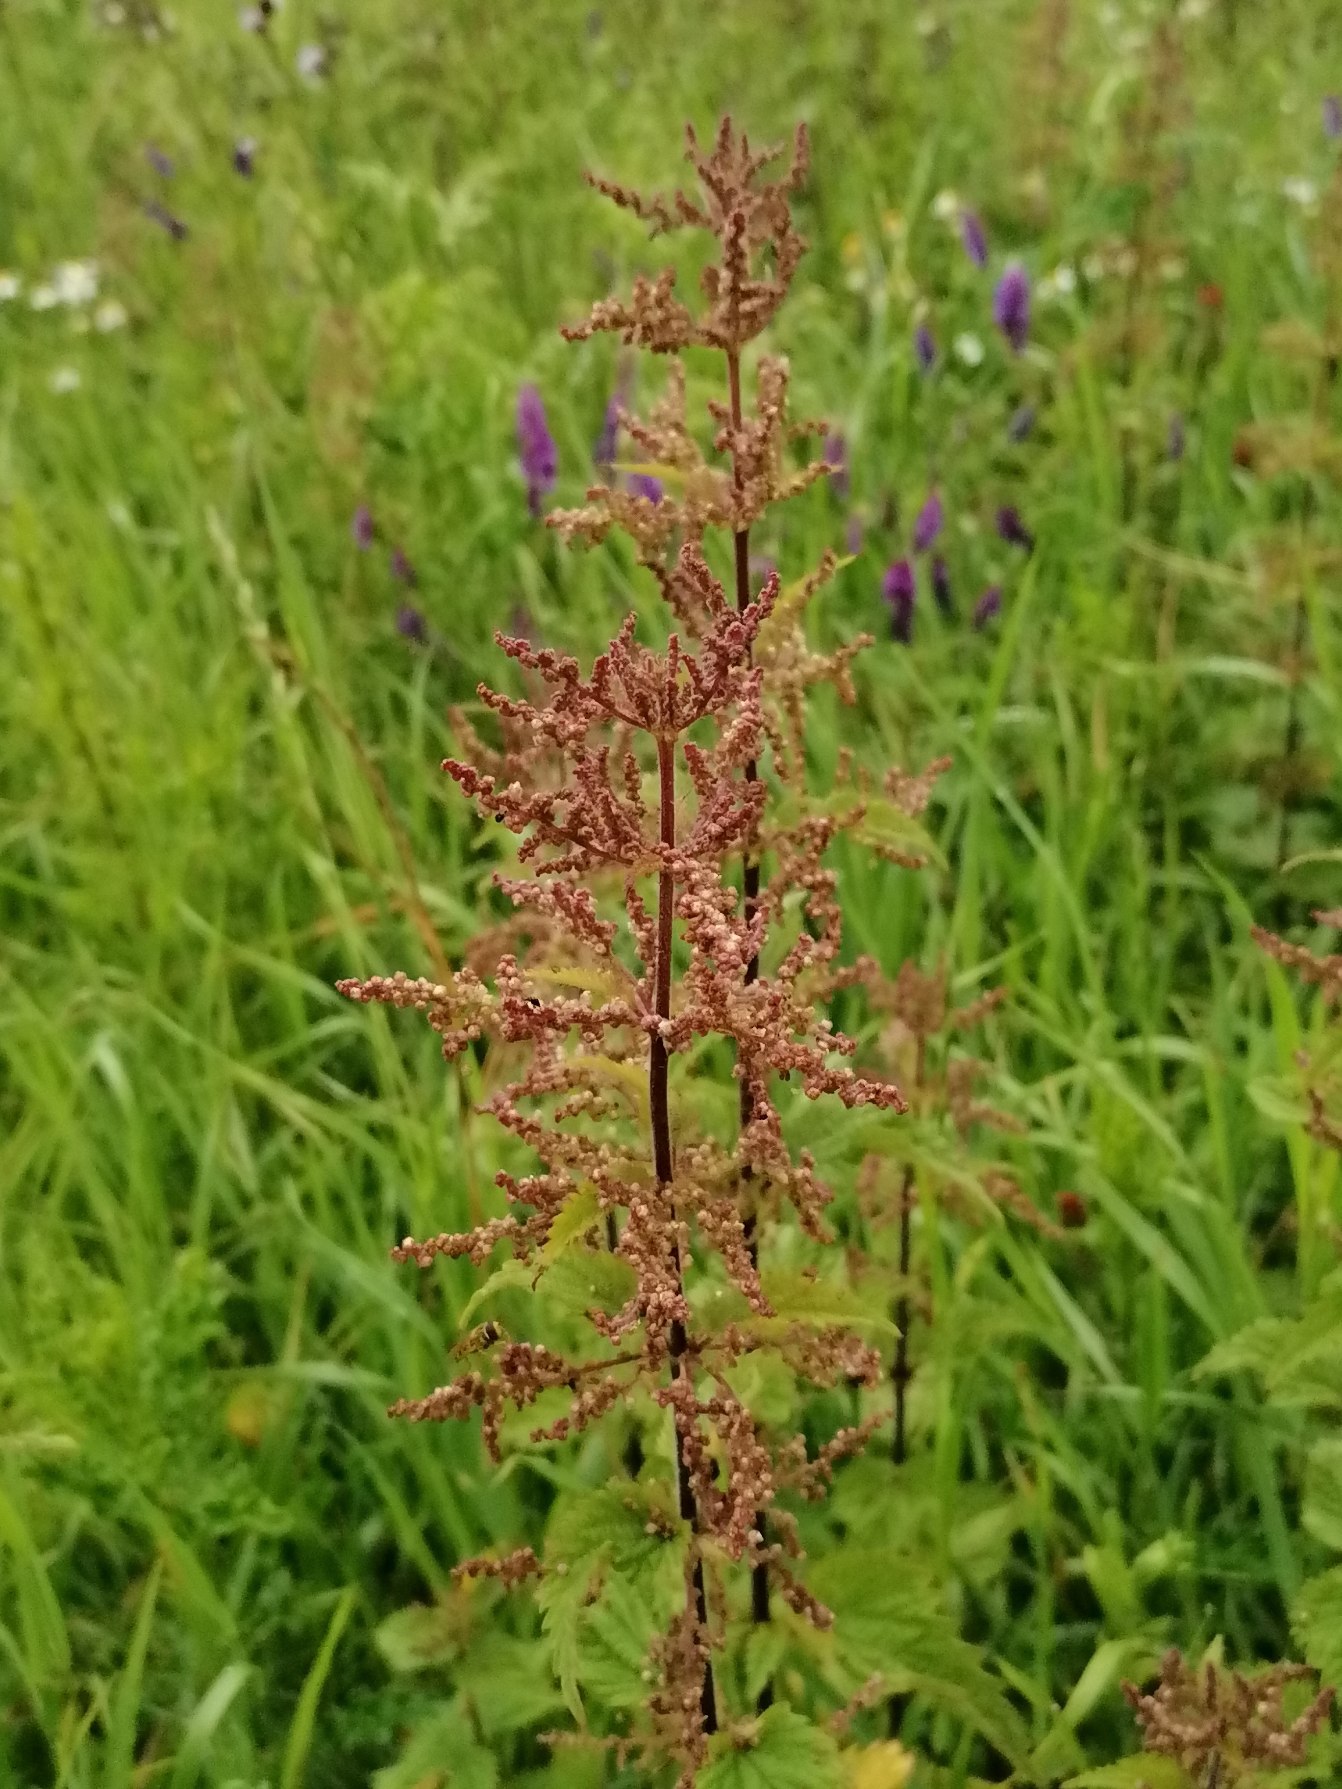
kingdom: Plantae
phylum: Tracheophyta
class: Magnoliopsida
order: Rosales
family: Urticaceae
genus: Urtica
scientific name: Urtica dioica
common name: Stor nælde
